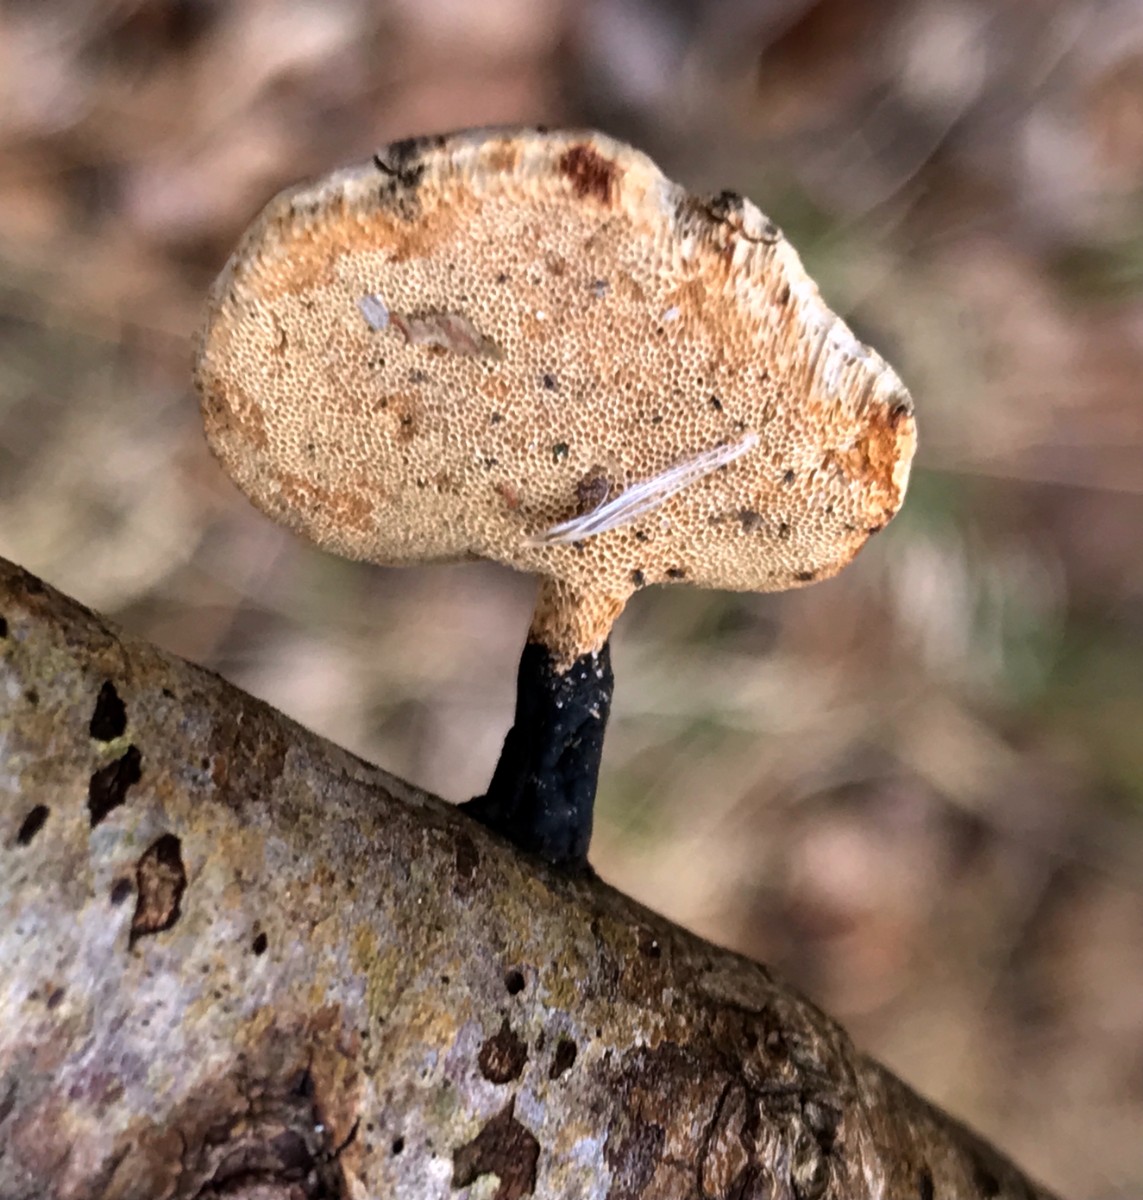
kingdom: Fungi
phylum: Basidiomycota
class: Agaricomycetes
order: Polyporales
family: Polyporaceae
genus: Cerioporus
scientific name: Cerioporus varius
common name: foranderlig stilkporesvamp
